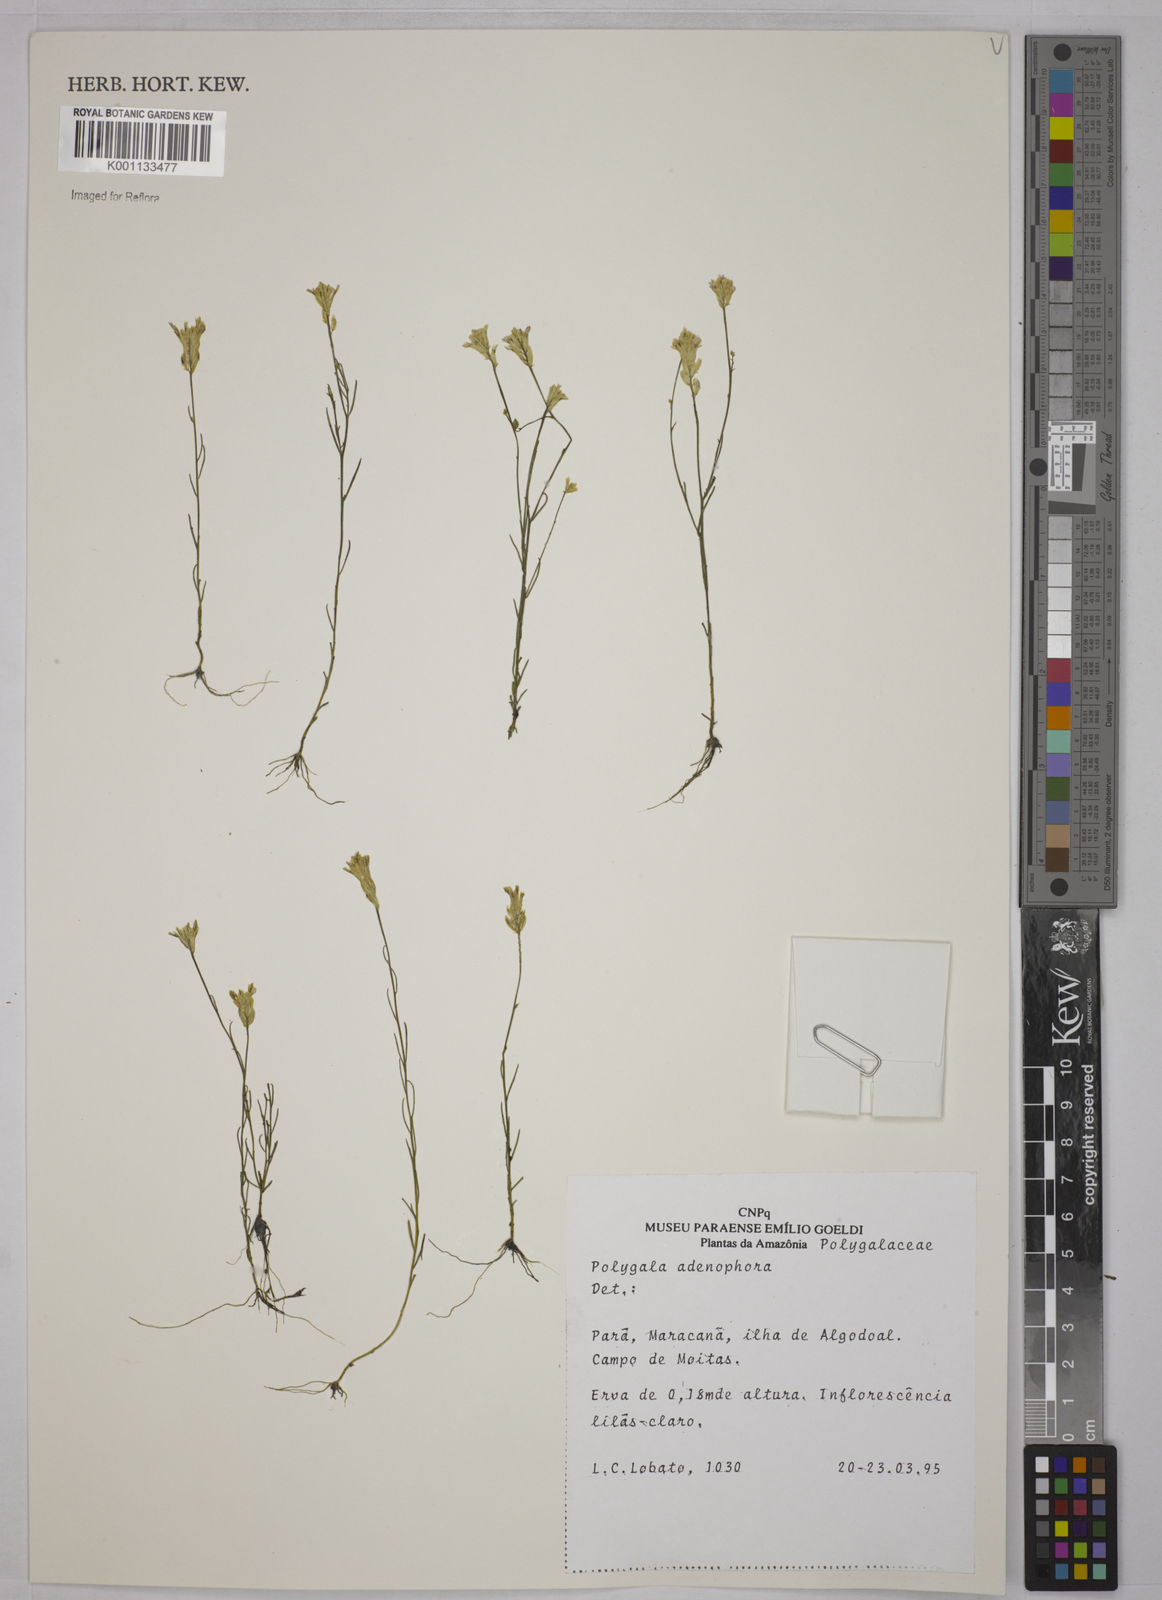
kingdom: Plantae
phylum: Tracheophyta
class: Magnoliopsida
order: Fabales
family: Polygalaceae
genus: Polygala
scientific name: Polygala adenophora
